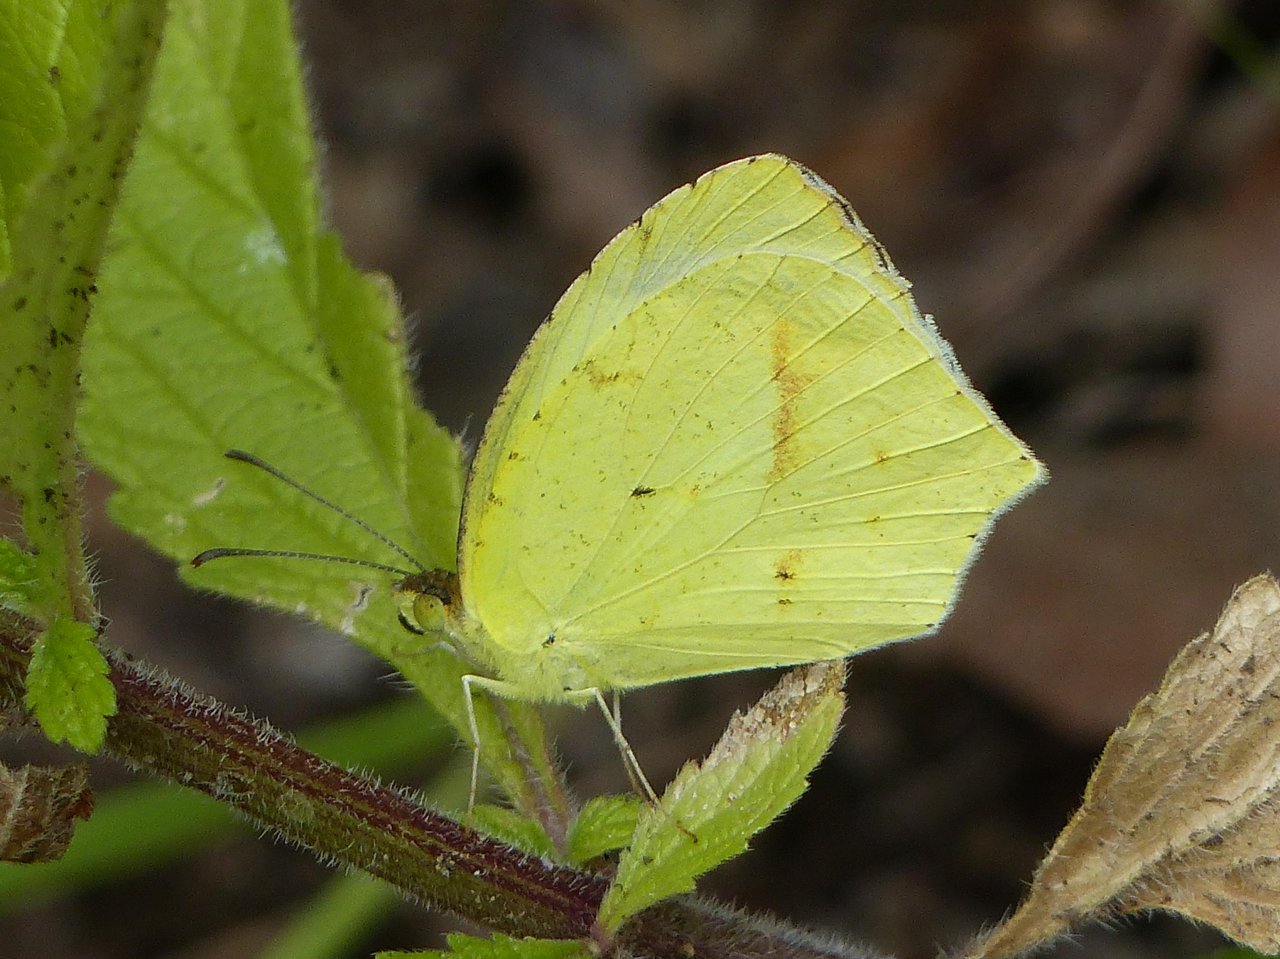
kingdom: Animalia
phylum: Arthropoda
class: Insecta
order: Lepidoptera
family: Pieridae
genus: Eurema
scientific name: Eurema mexicana
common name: Mexican Yellow
